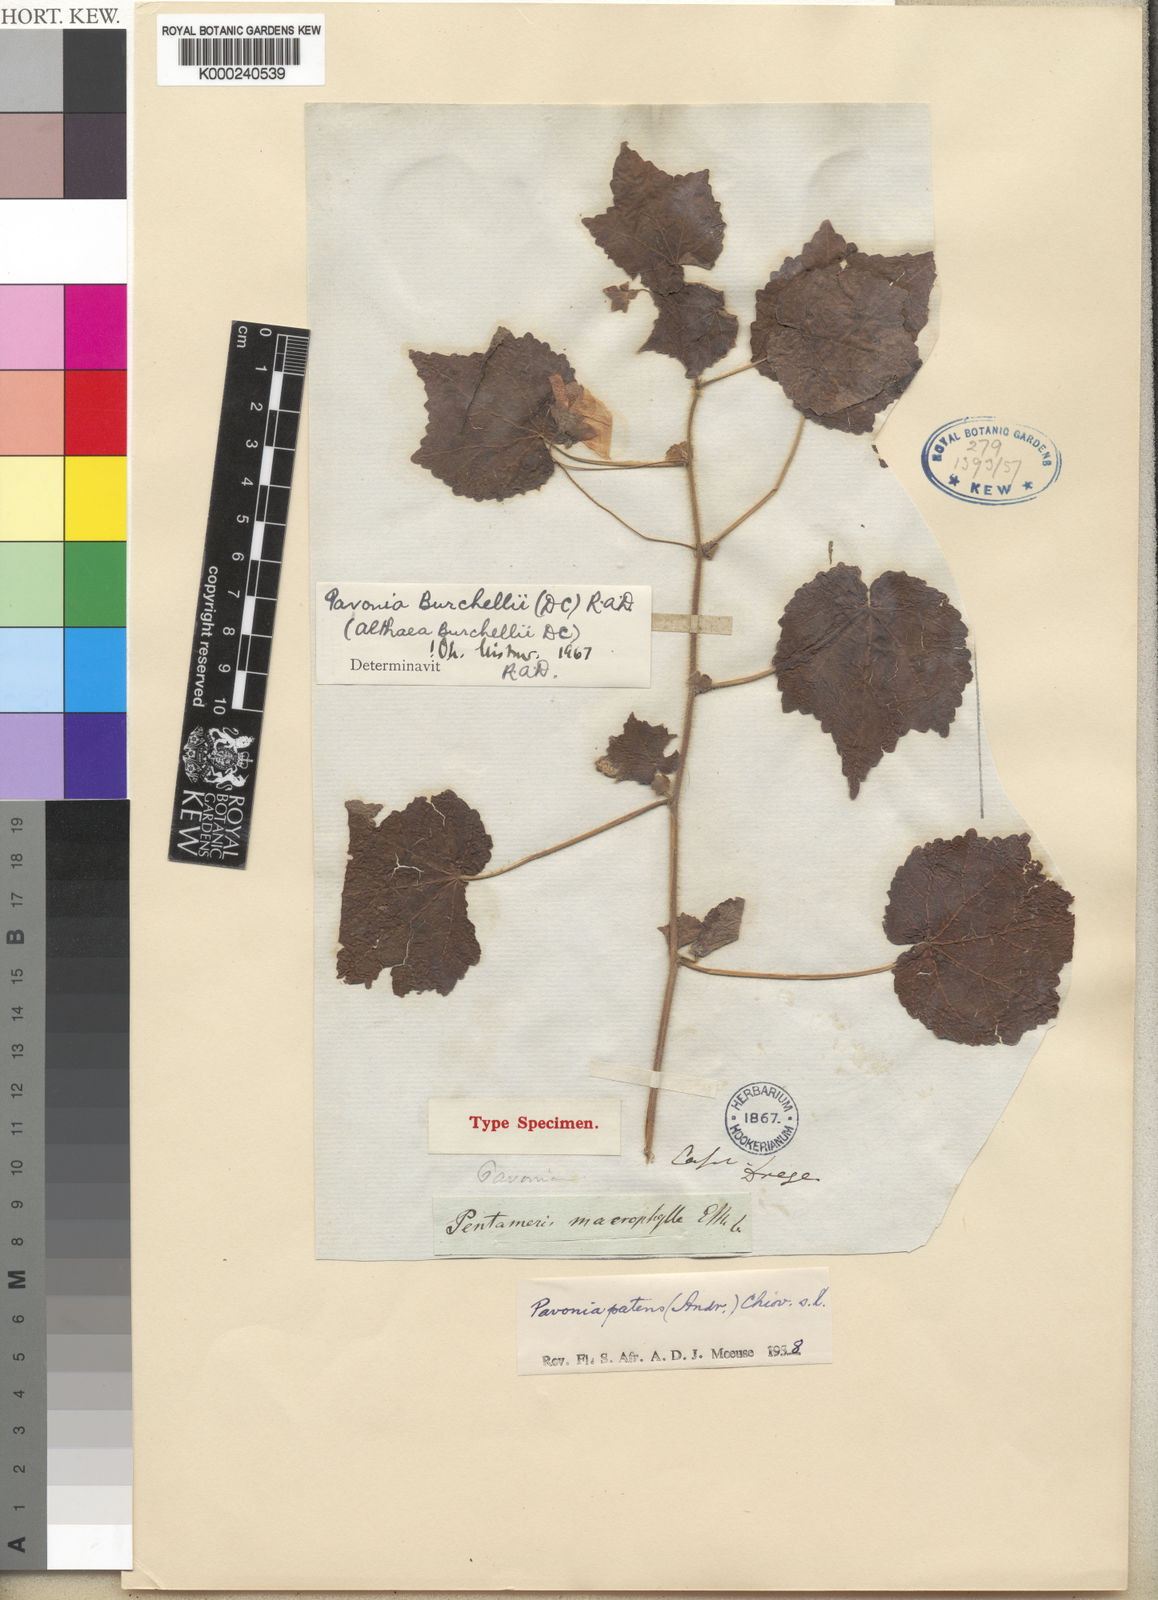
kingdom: Plantae
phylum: Tracheophyta
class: Magnoliopsida
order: Malvales
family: Malvaceae
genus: Pavonia
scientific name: Pavonia burchellii
